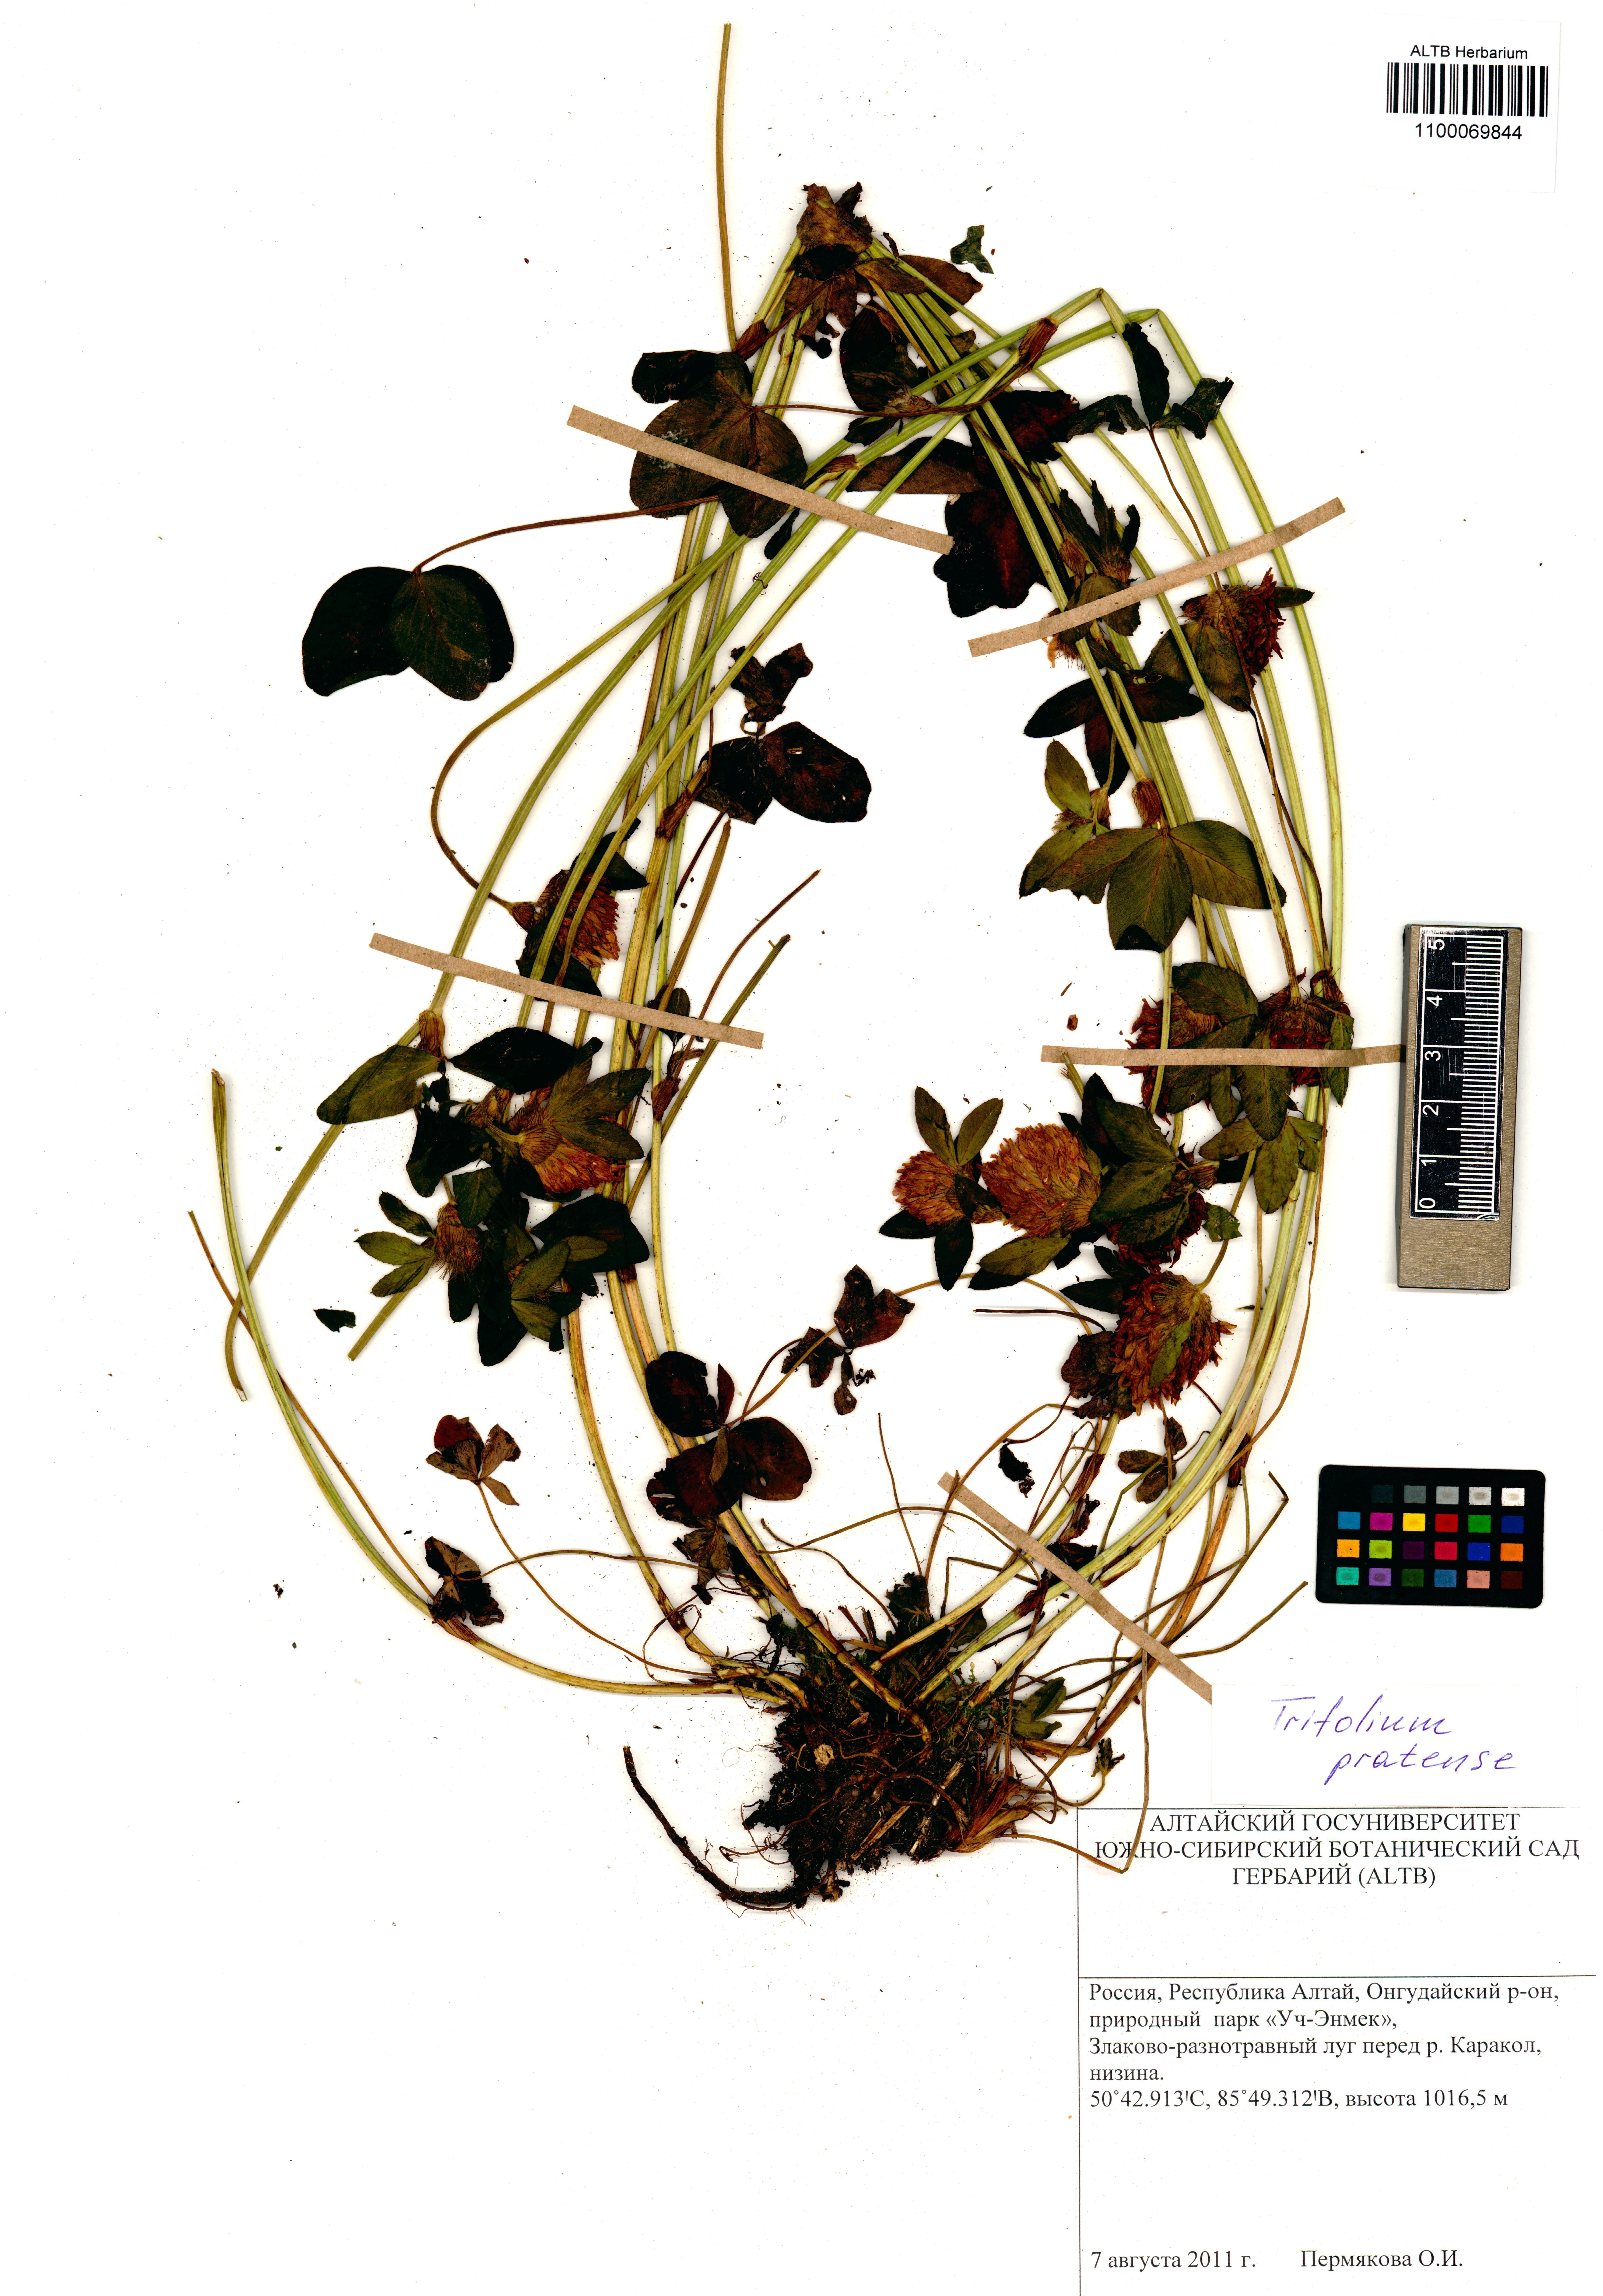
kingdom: Plantae
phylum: Tracheophyta
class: Magnoliopsida
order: Fabales
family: Fabaceae
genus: Trifolium
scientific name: Trifolium pratense
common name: Red clover
